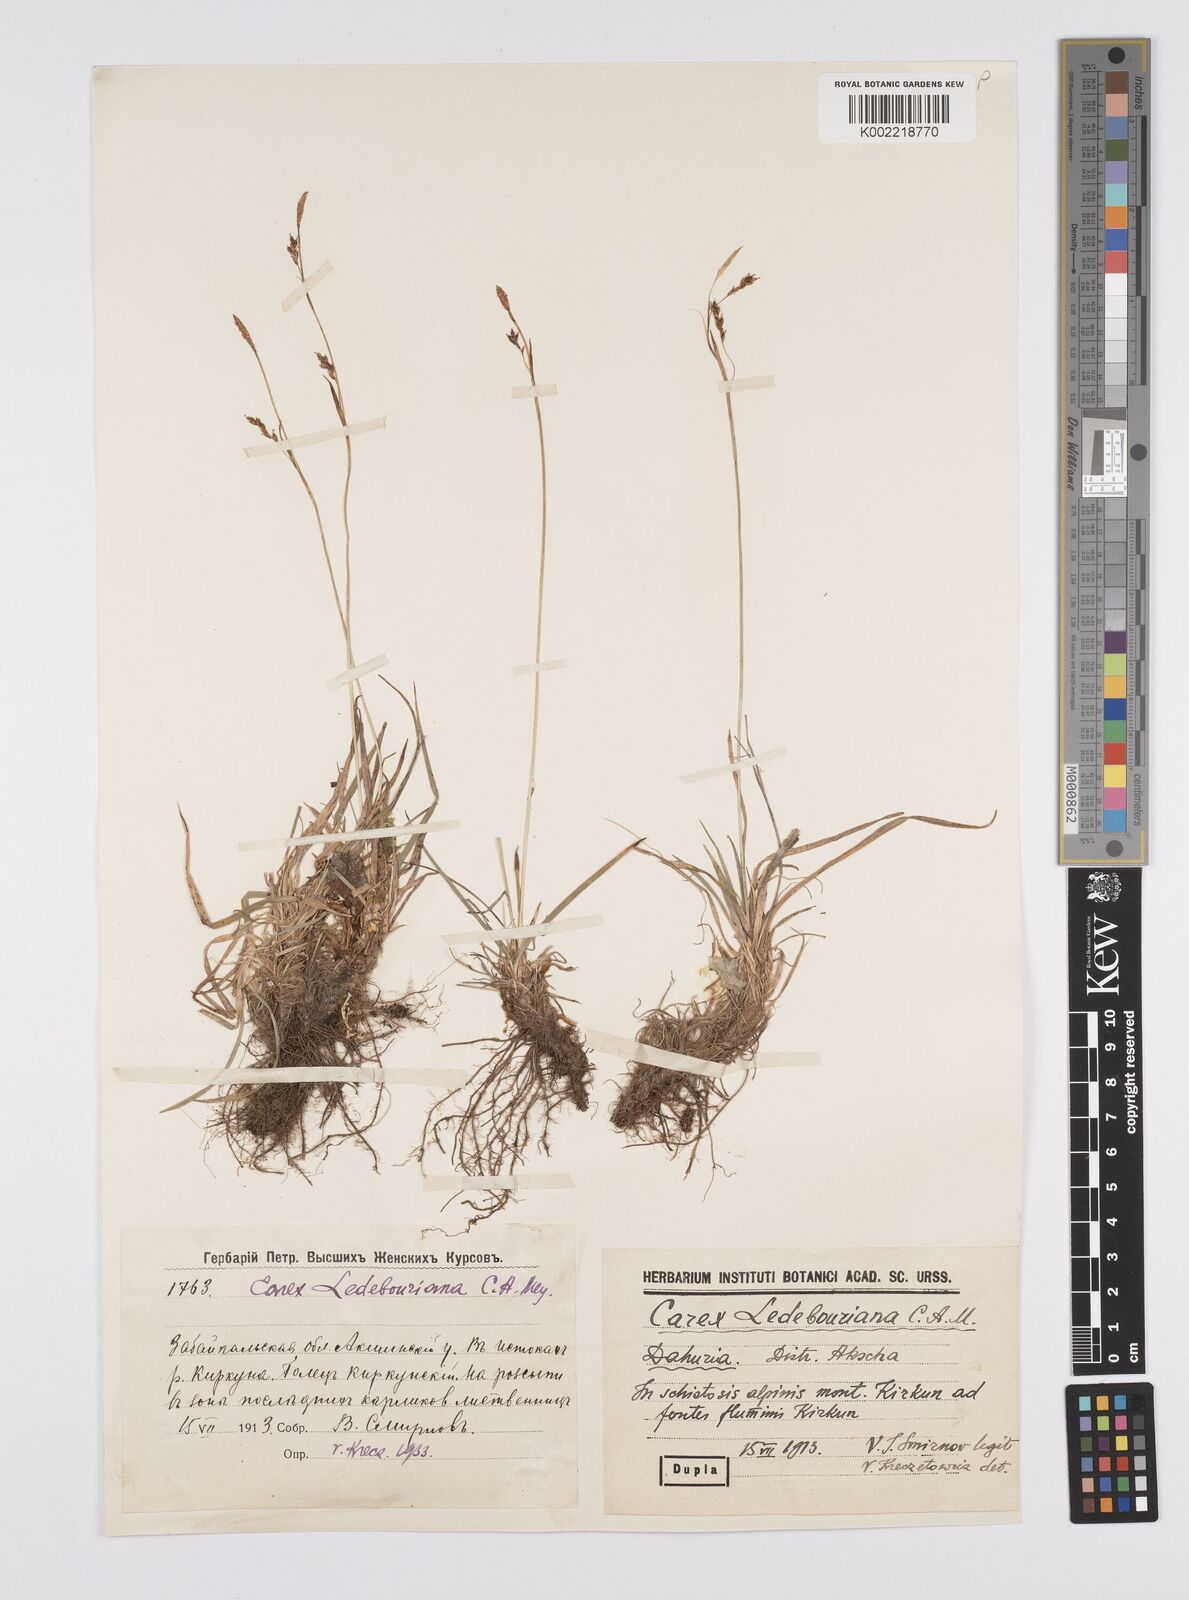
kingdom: Plantae
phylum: Tracheophyta
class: Liliopsida
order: Poales
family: Cyperaceae
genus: Carex
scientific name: Carex capillaris
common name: Hair sedge
